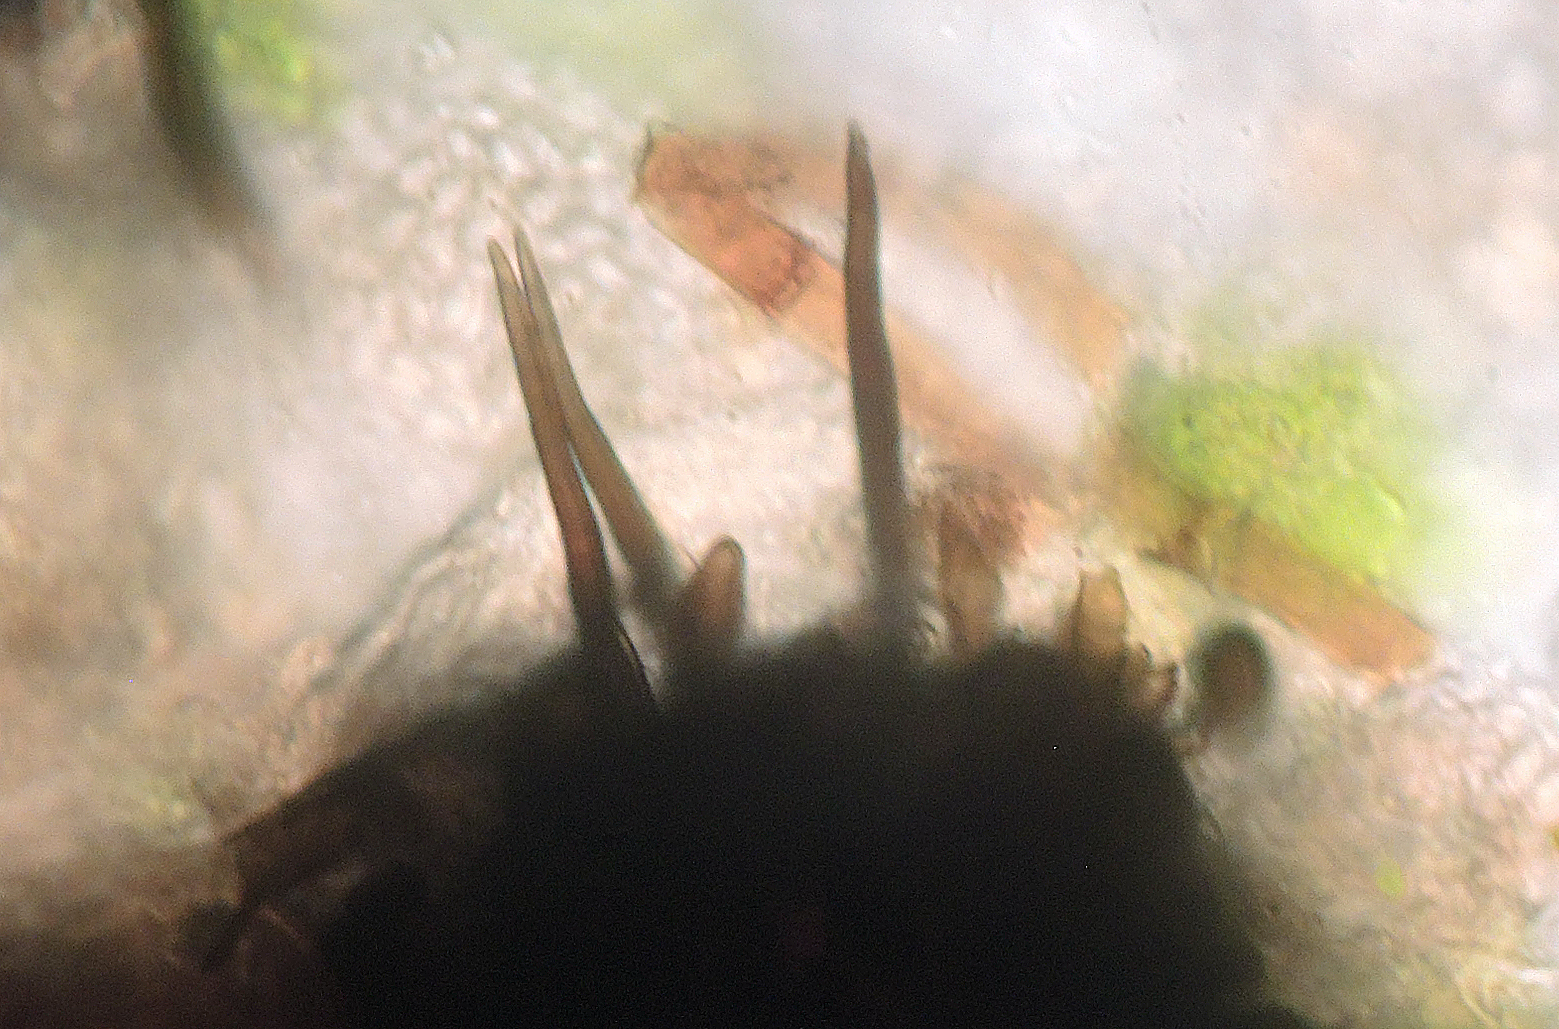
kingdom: Fungi
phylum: Ascomycota
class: Sordariomycetes
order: Coniochaetales
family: Coniochaetaceae
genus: Coniochaeta
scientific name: Coniochaeta
